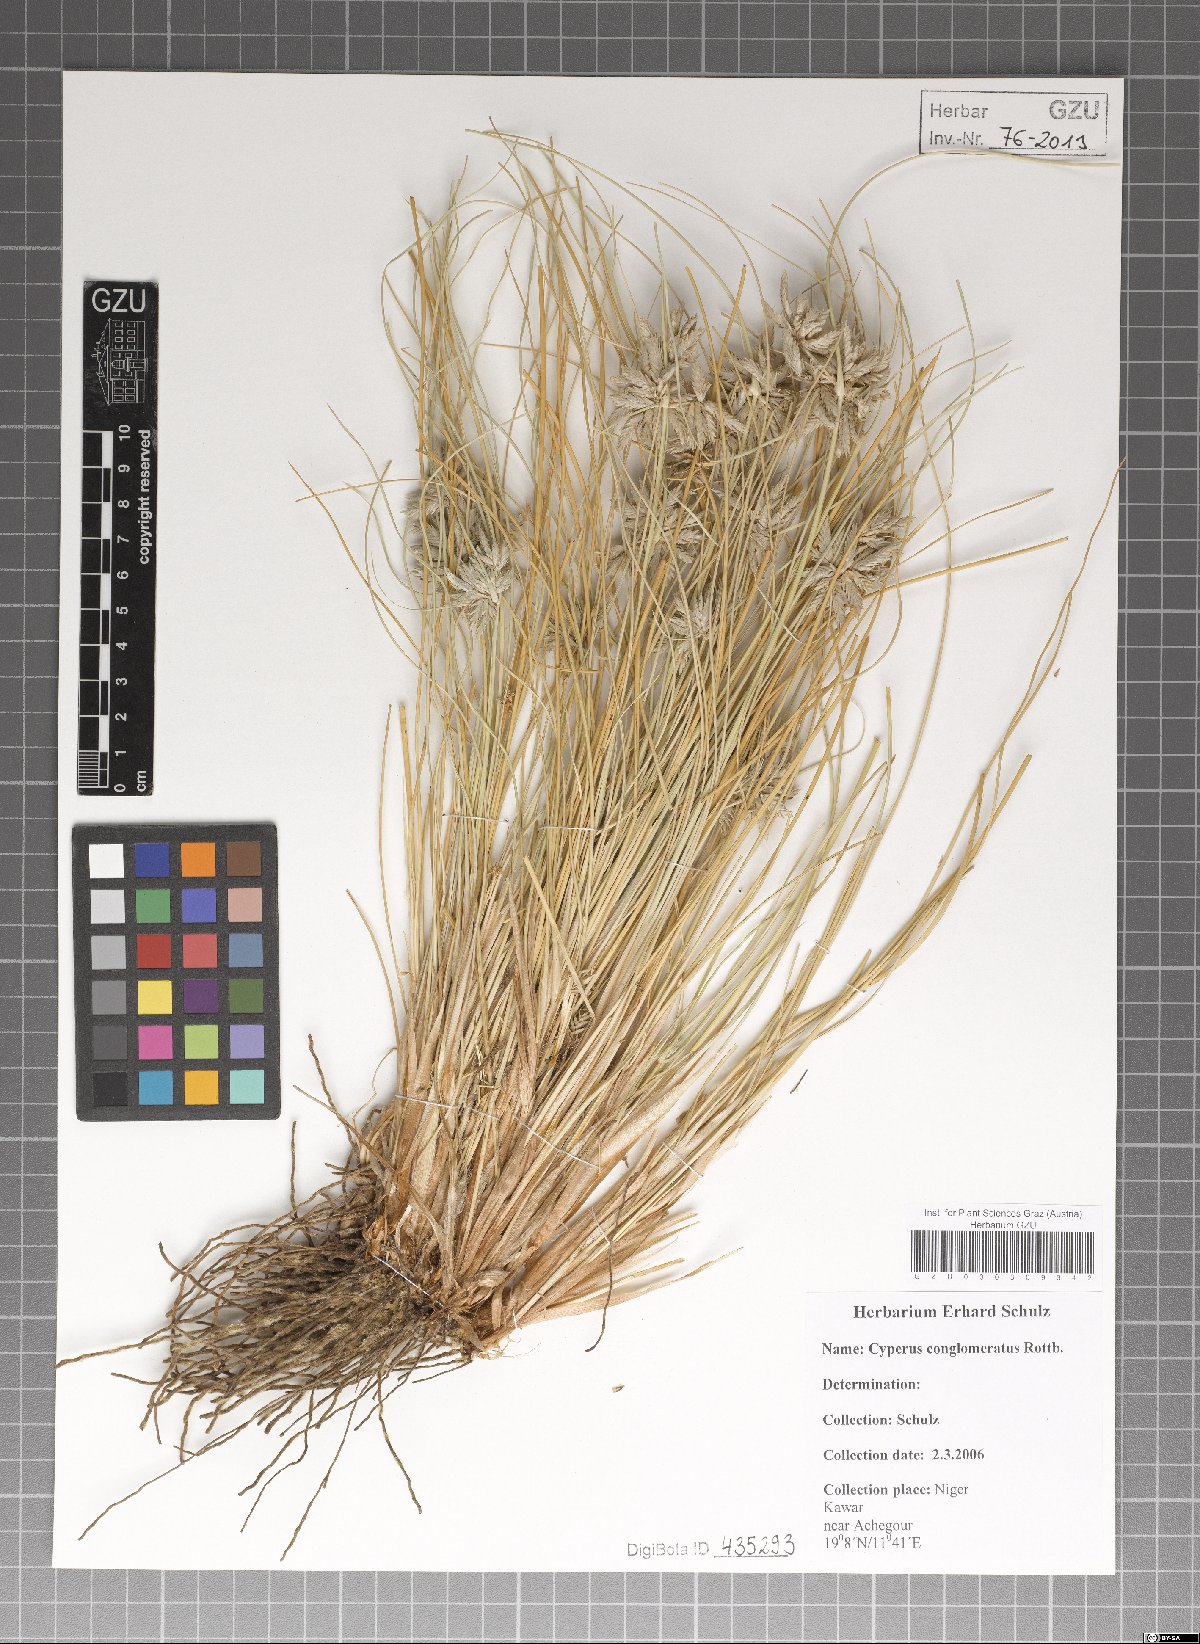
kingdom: Plantae
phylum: Tracheophyta
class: Liliopsida
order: Poales
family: Cyperaceae
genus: Cyperus
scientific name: Cyperus conglomeratus
